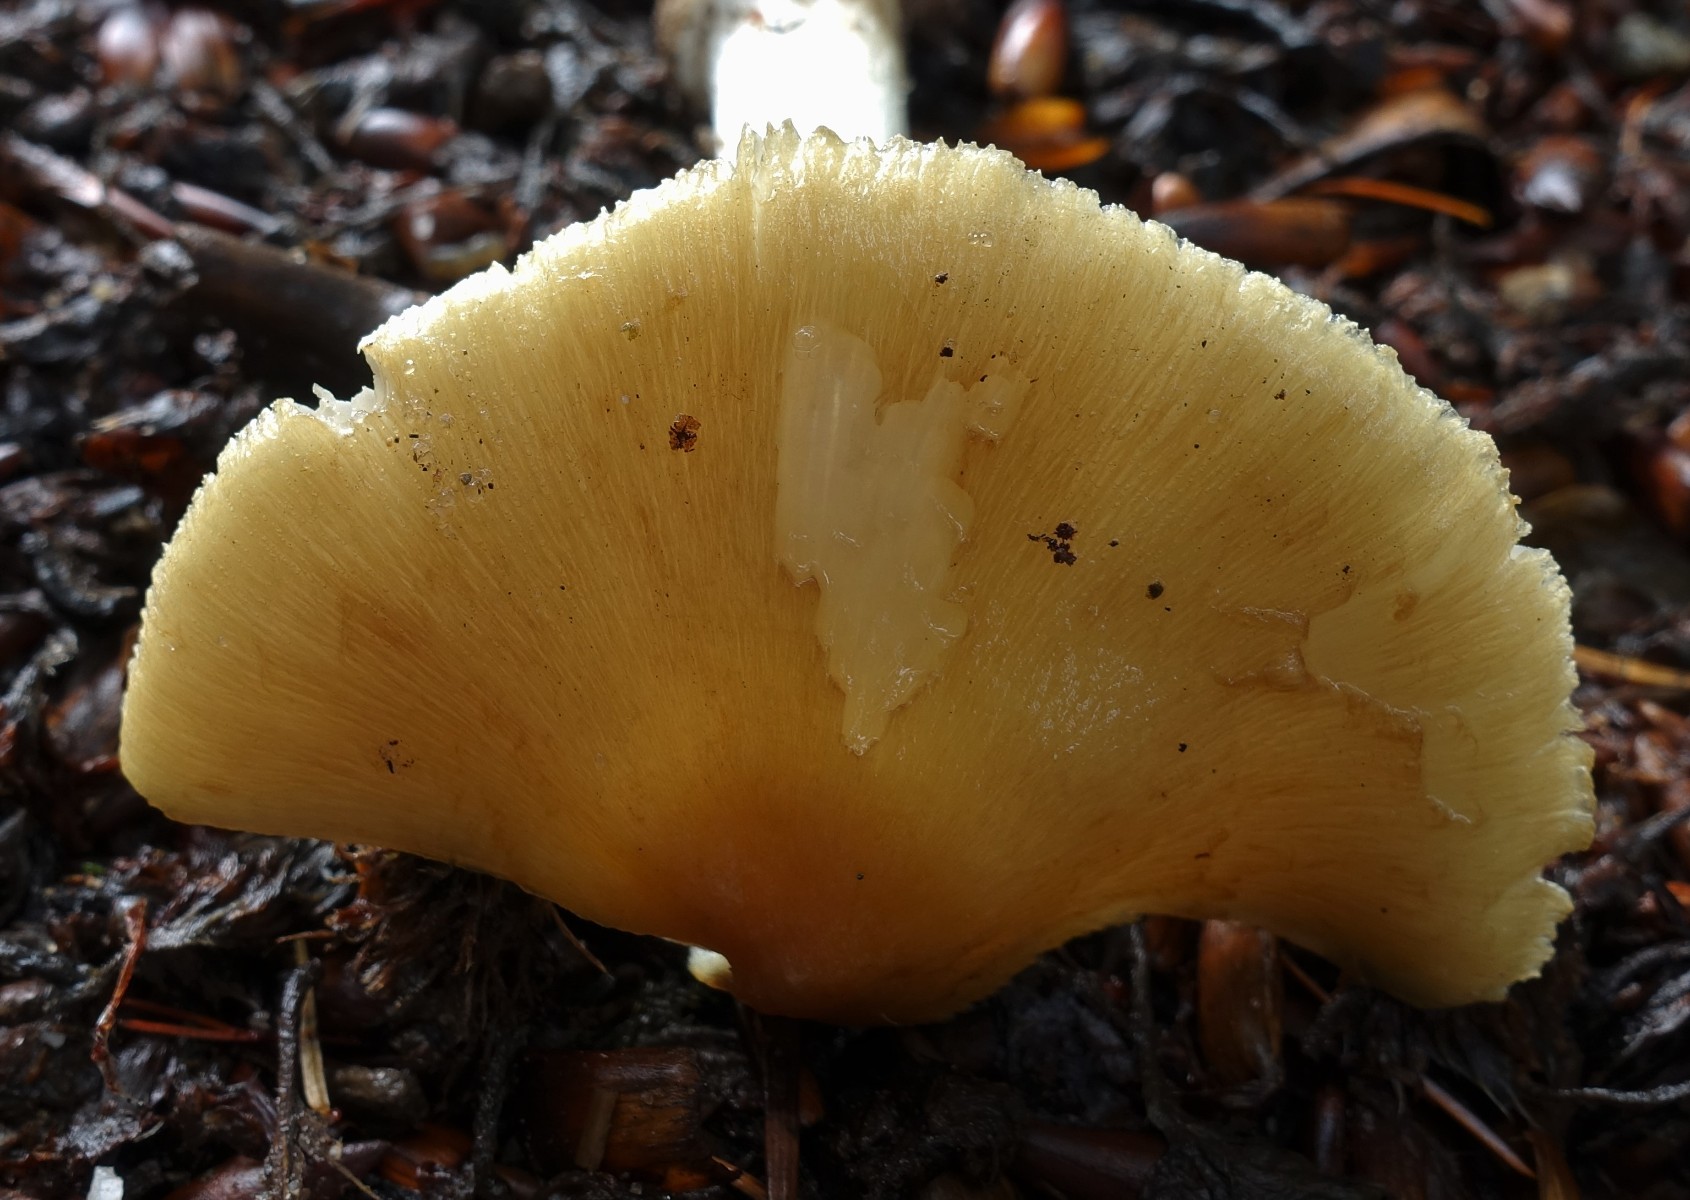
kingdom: Fungi
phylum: Basidiomycota
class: Agaricomycetes
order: Agaricales
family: Inocybaceae
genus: Inosperma
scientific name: Inosperma
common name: strågul trævlhat
